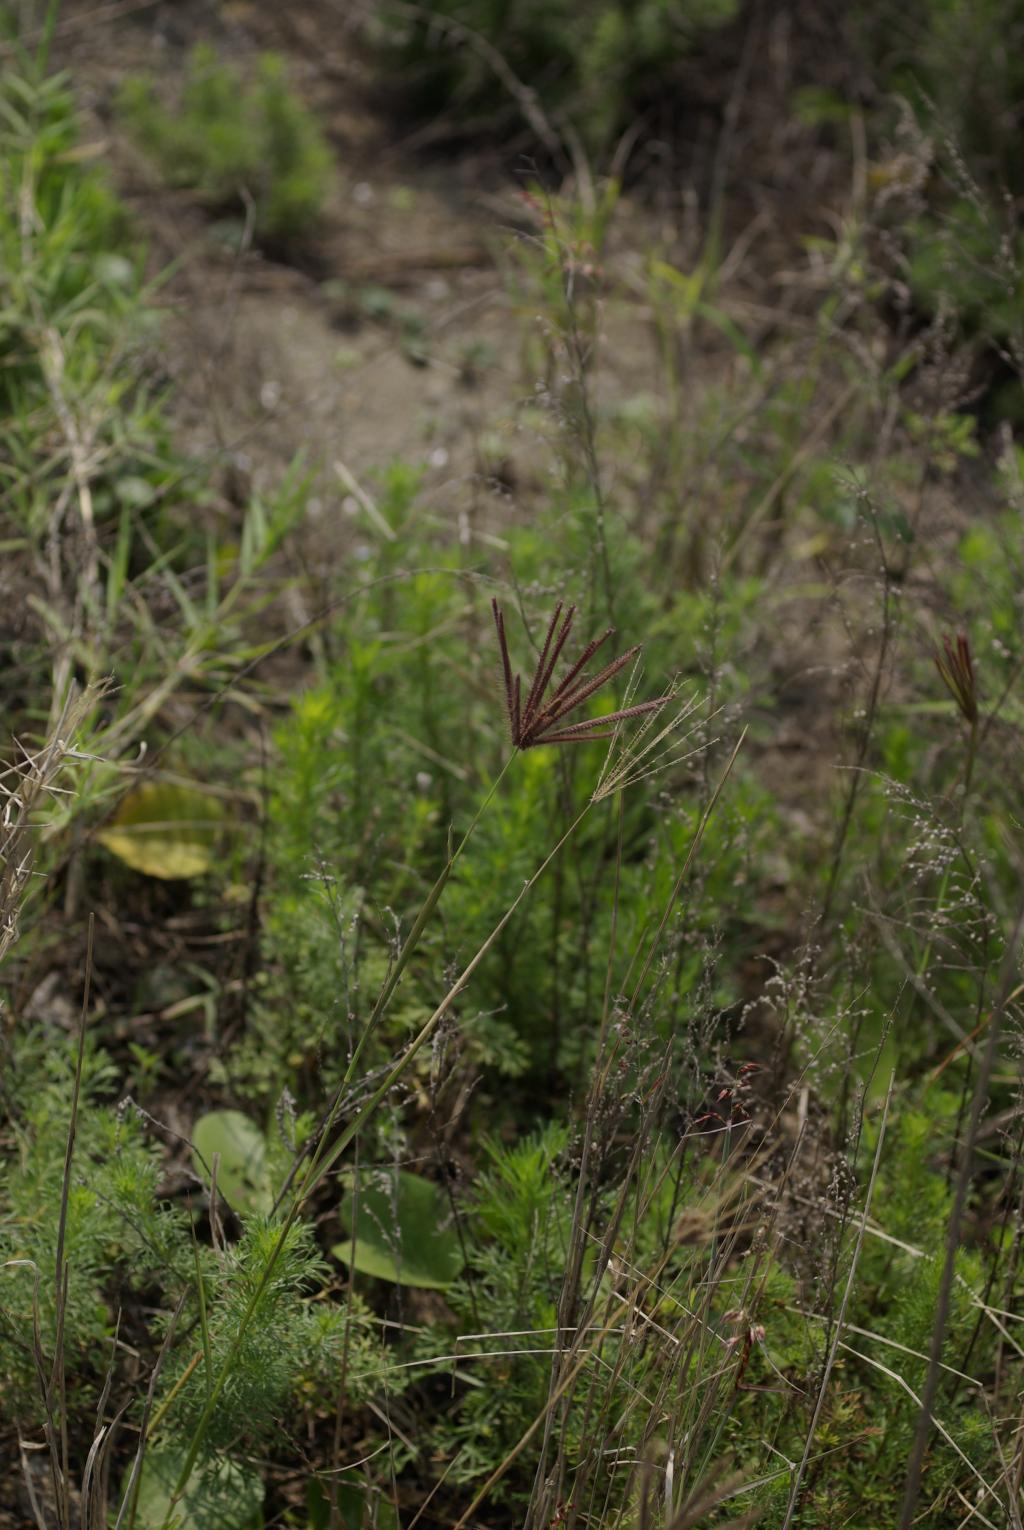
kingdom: Plantae
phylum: Tracheophyta
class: Liliopsida
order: Poales
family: Poaceae
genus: Chloris
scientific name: Chloris barbata
